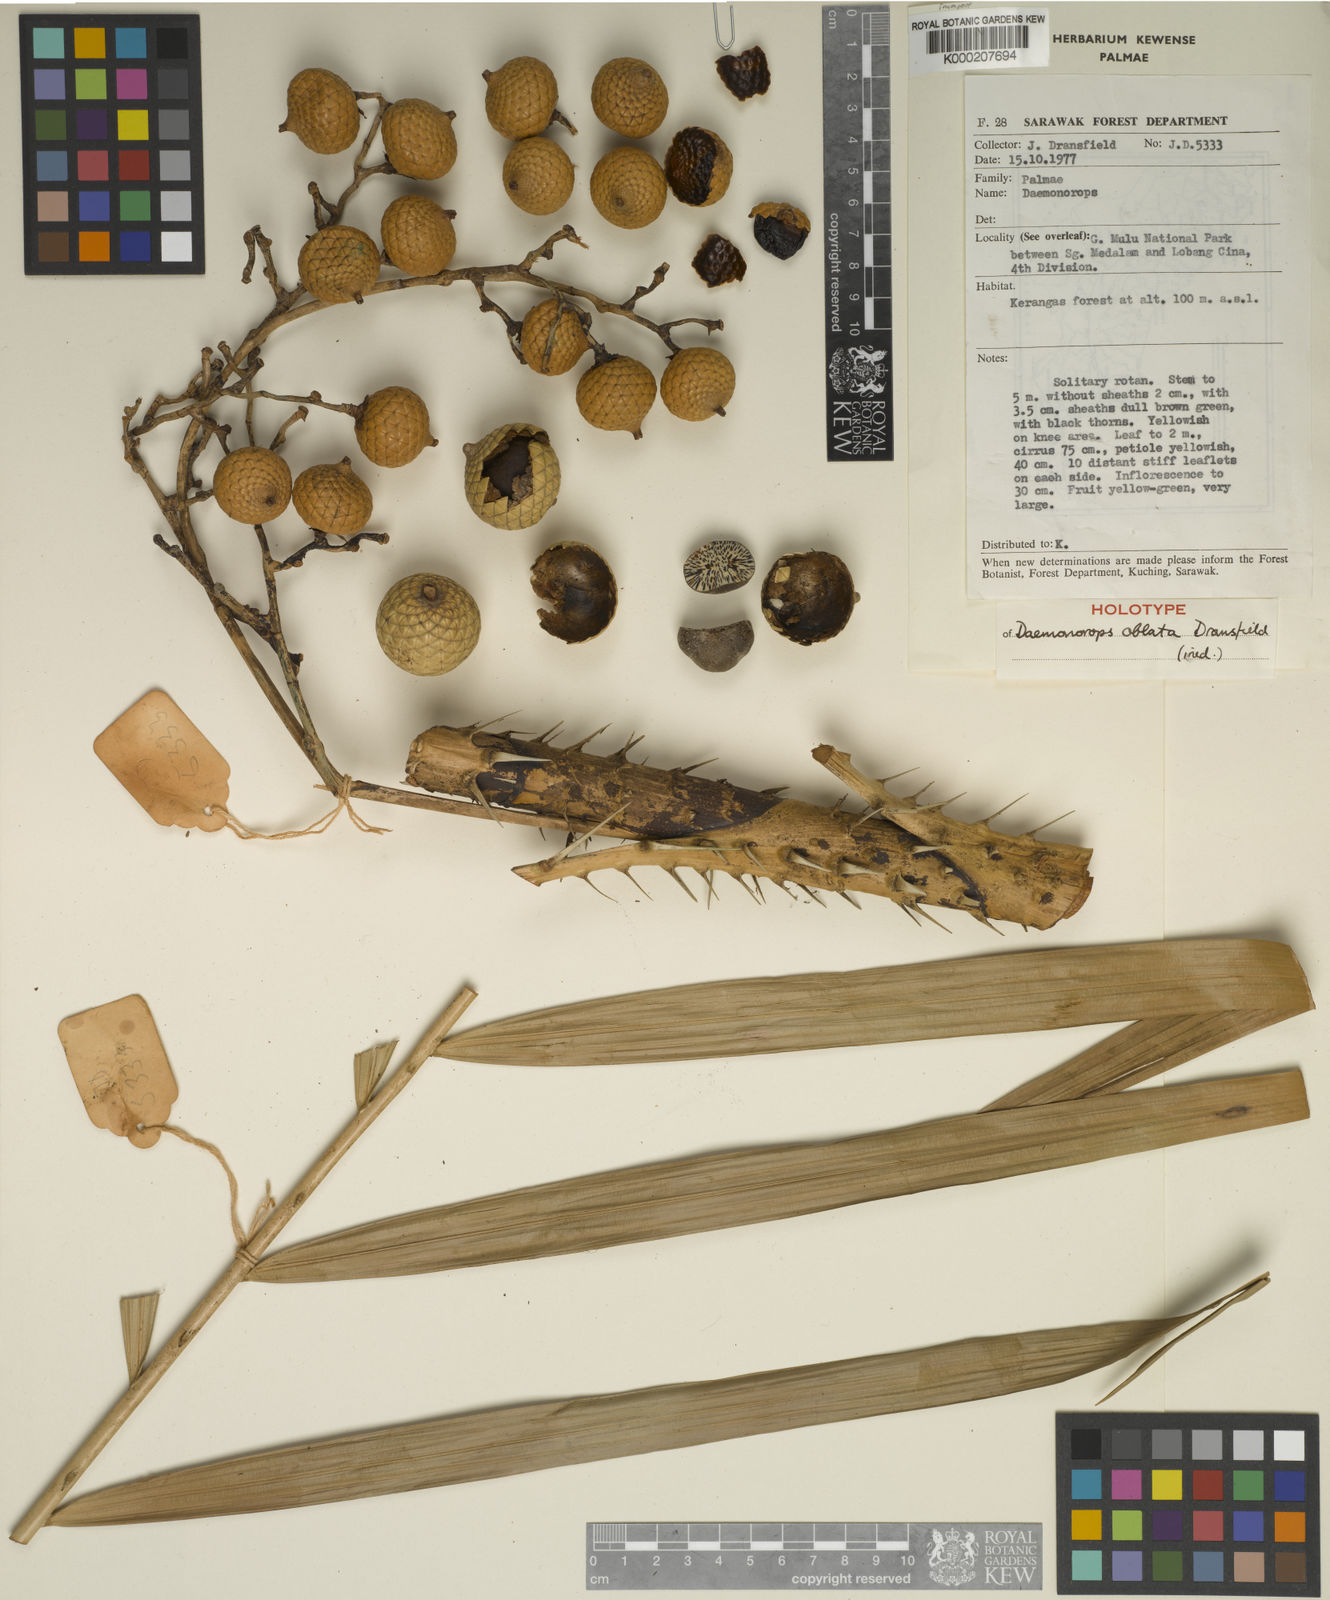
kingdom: Plantae
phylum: Tracheophyta
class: Liliopsida
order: Arecales
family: Arecaceae
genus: Calamus
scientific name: Calamus oblatus
